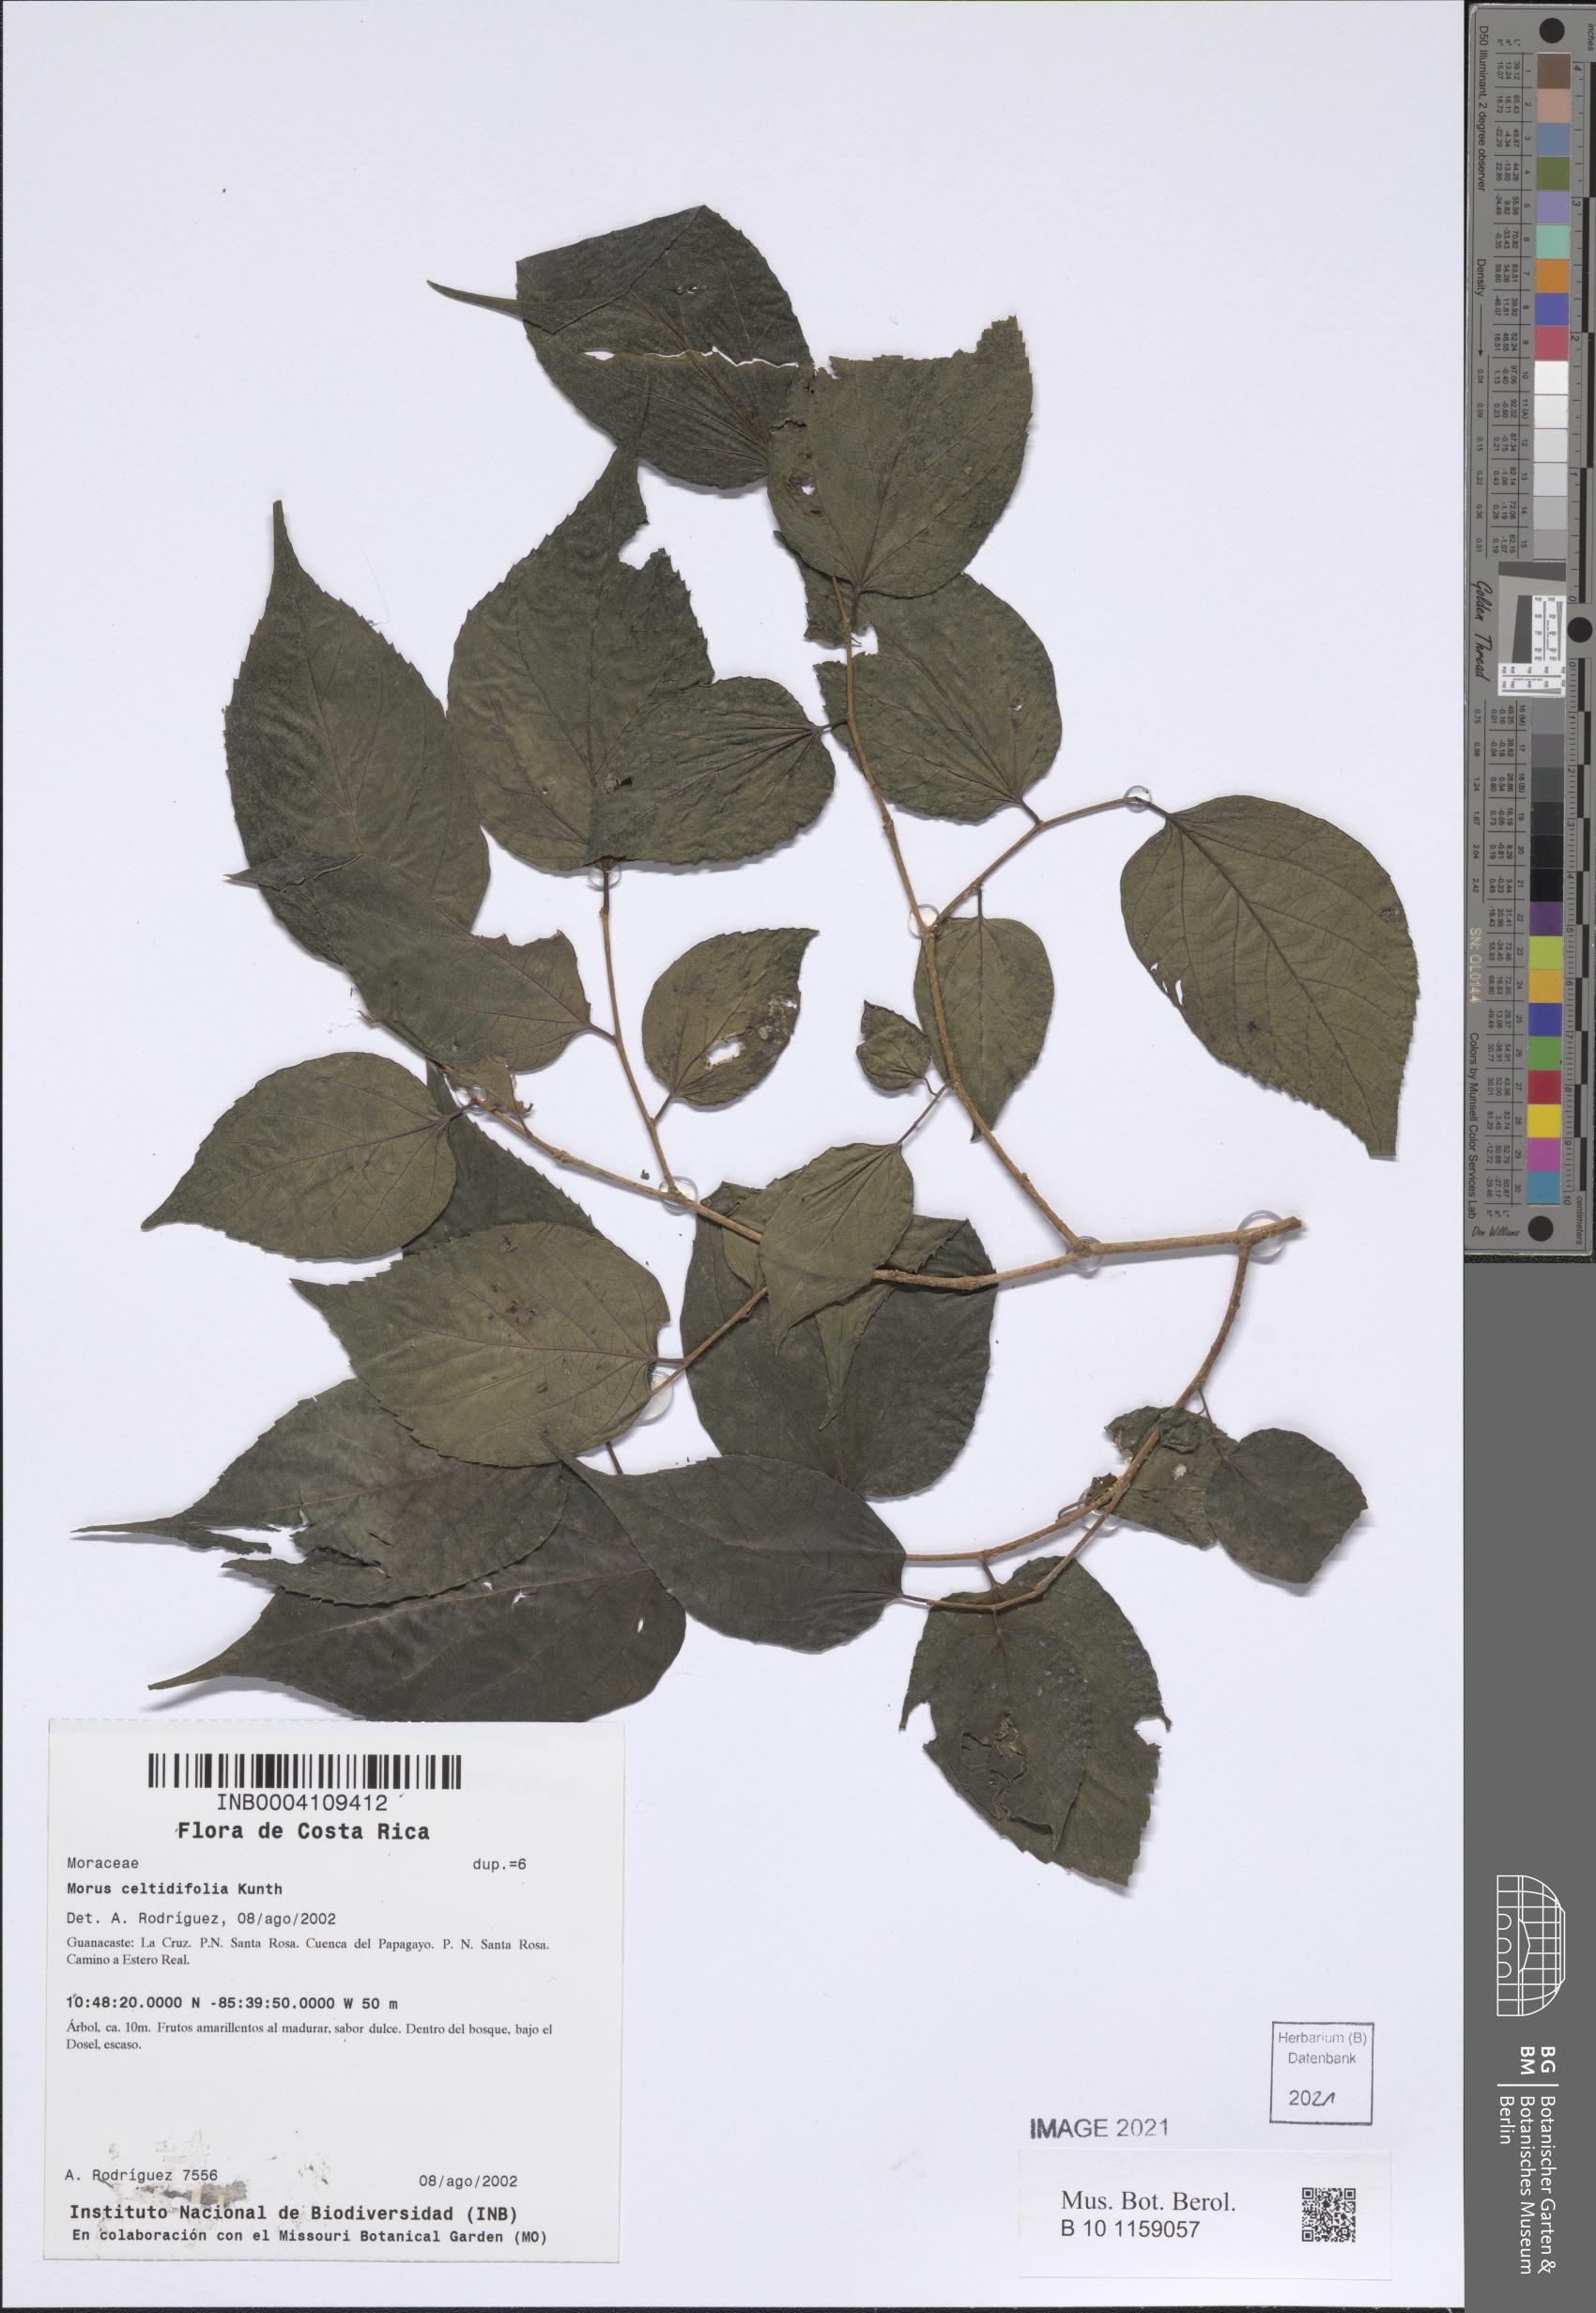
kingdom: Plantae
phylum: Tracheophyta
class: Magnoliopsida
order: Rosales
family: Moraceae
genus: Morus
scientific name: Morus celtidifolia
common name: Texas mulberry
